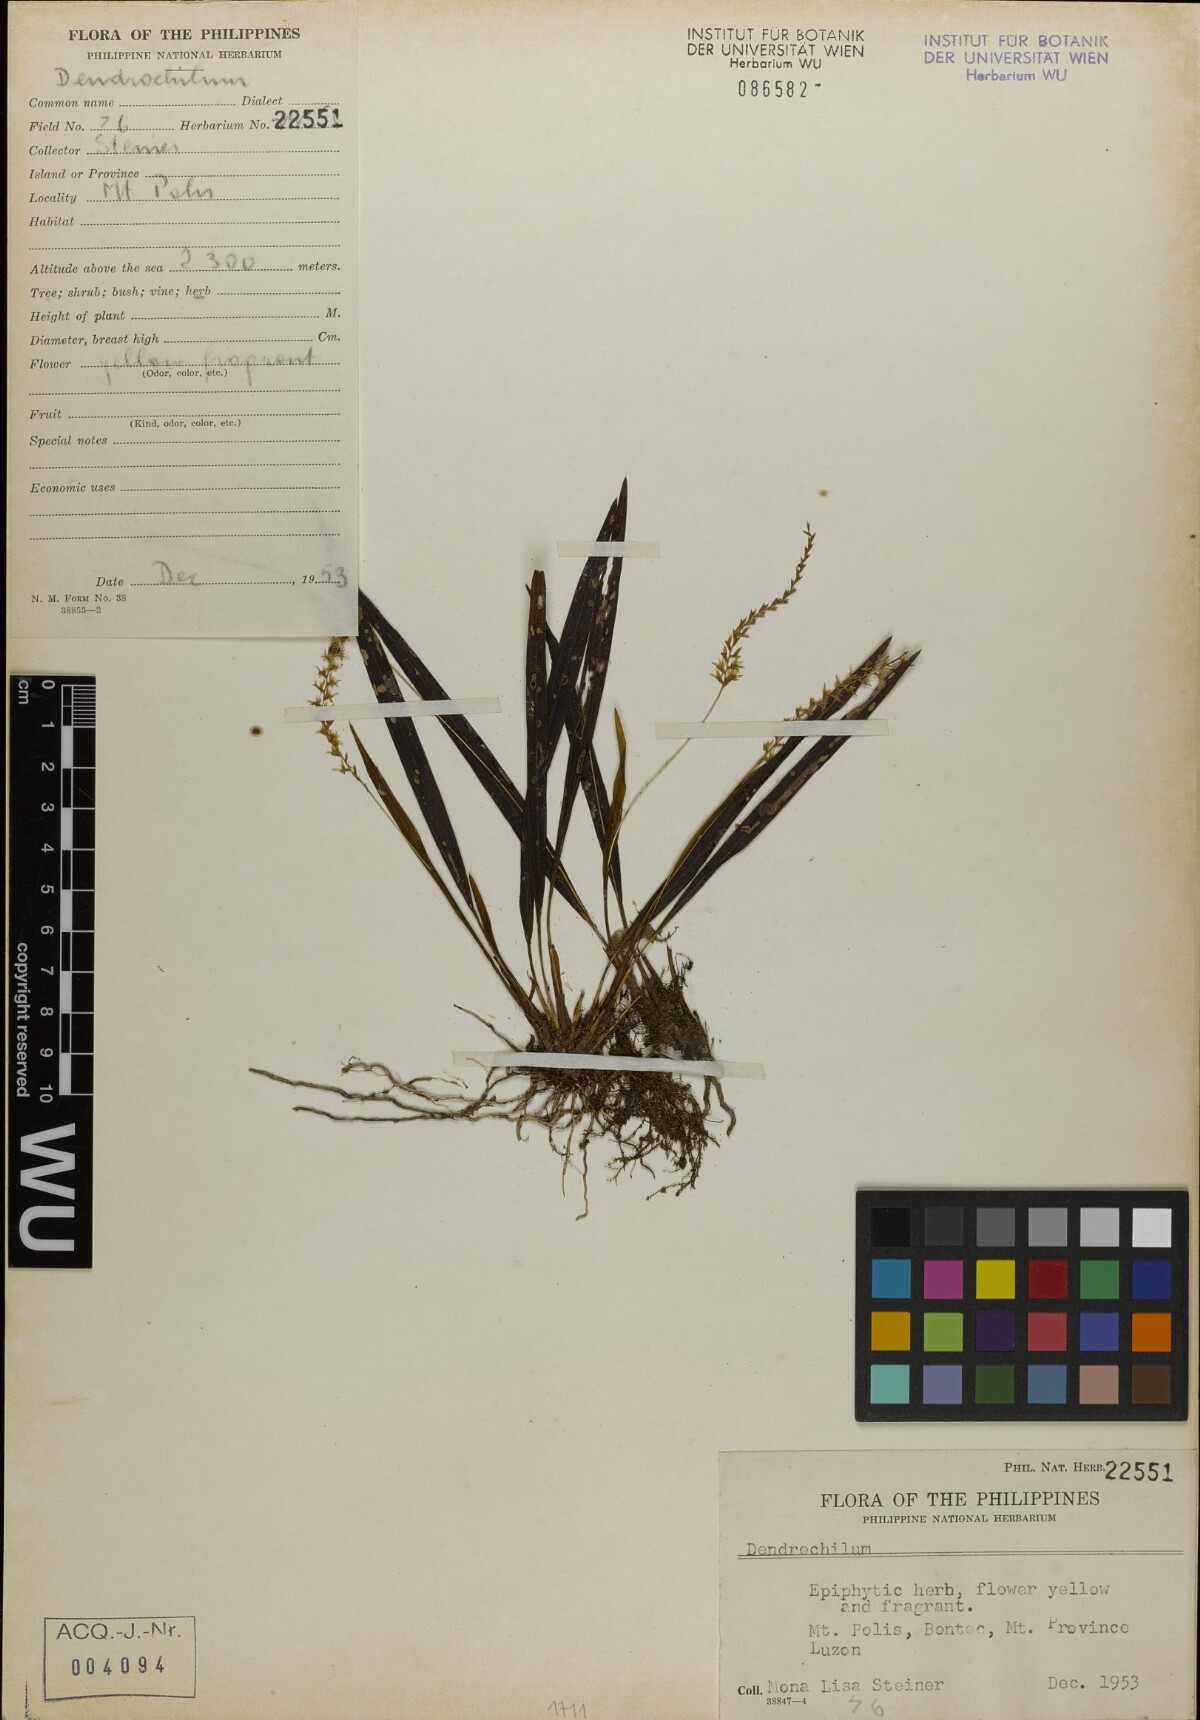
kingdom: Plantae
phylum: Tracheophyta
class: Liliopsida
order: Asparagales
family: Orchidaceae
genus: Coelogyne
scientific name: Coelogyne
